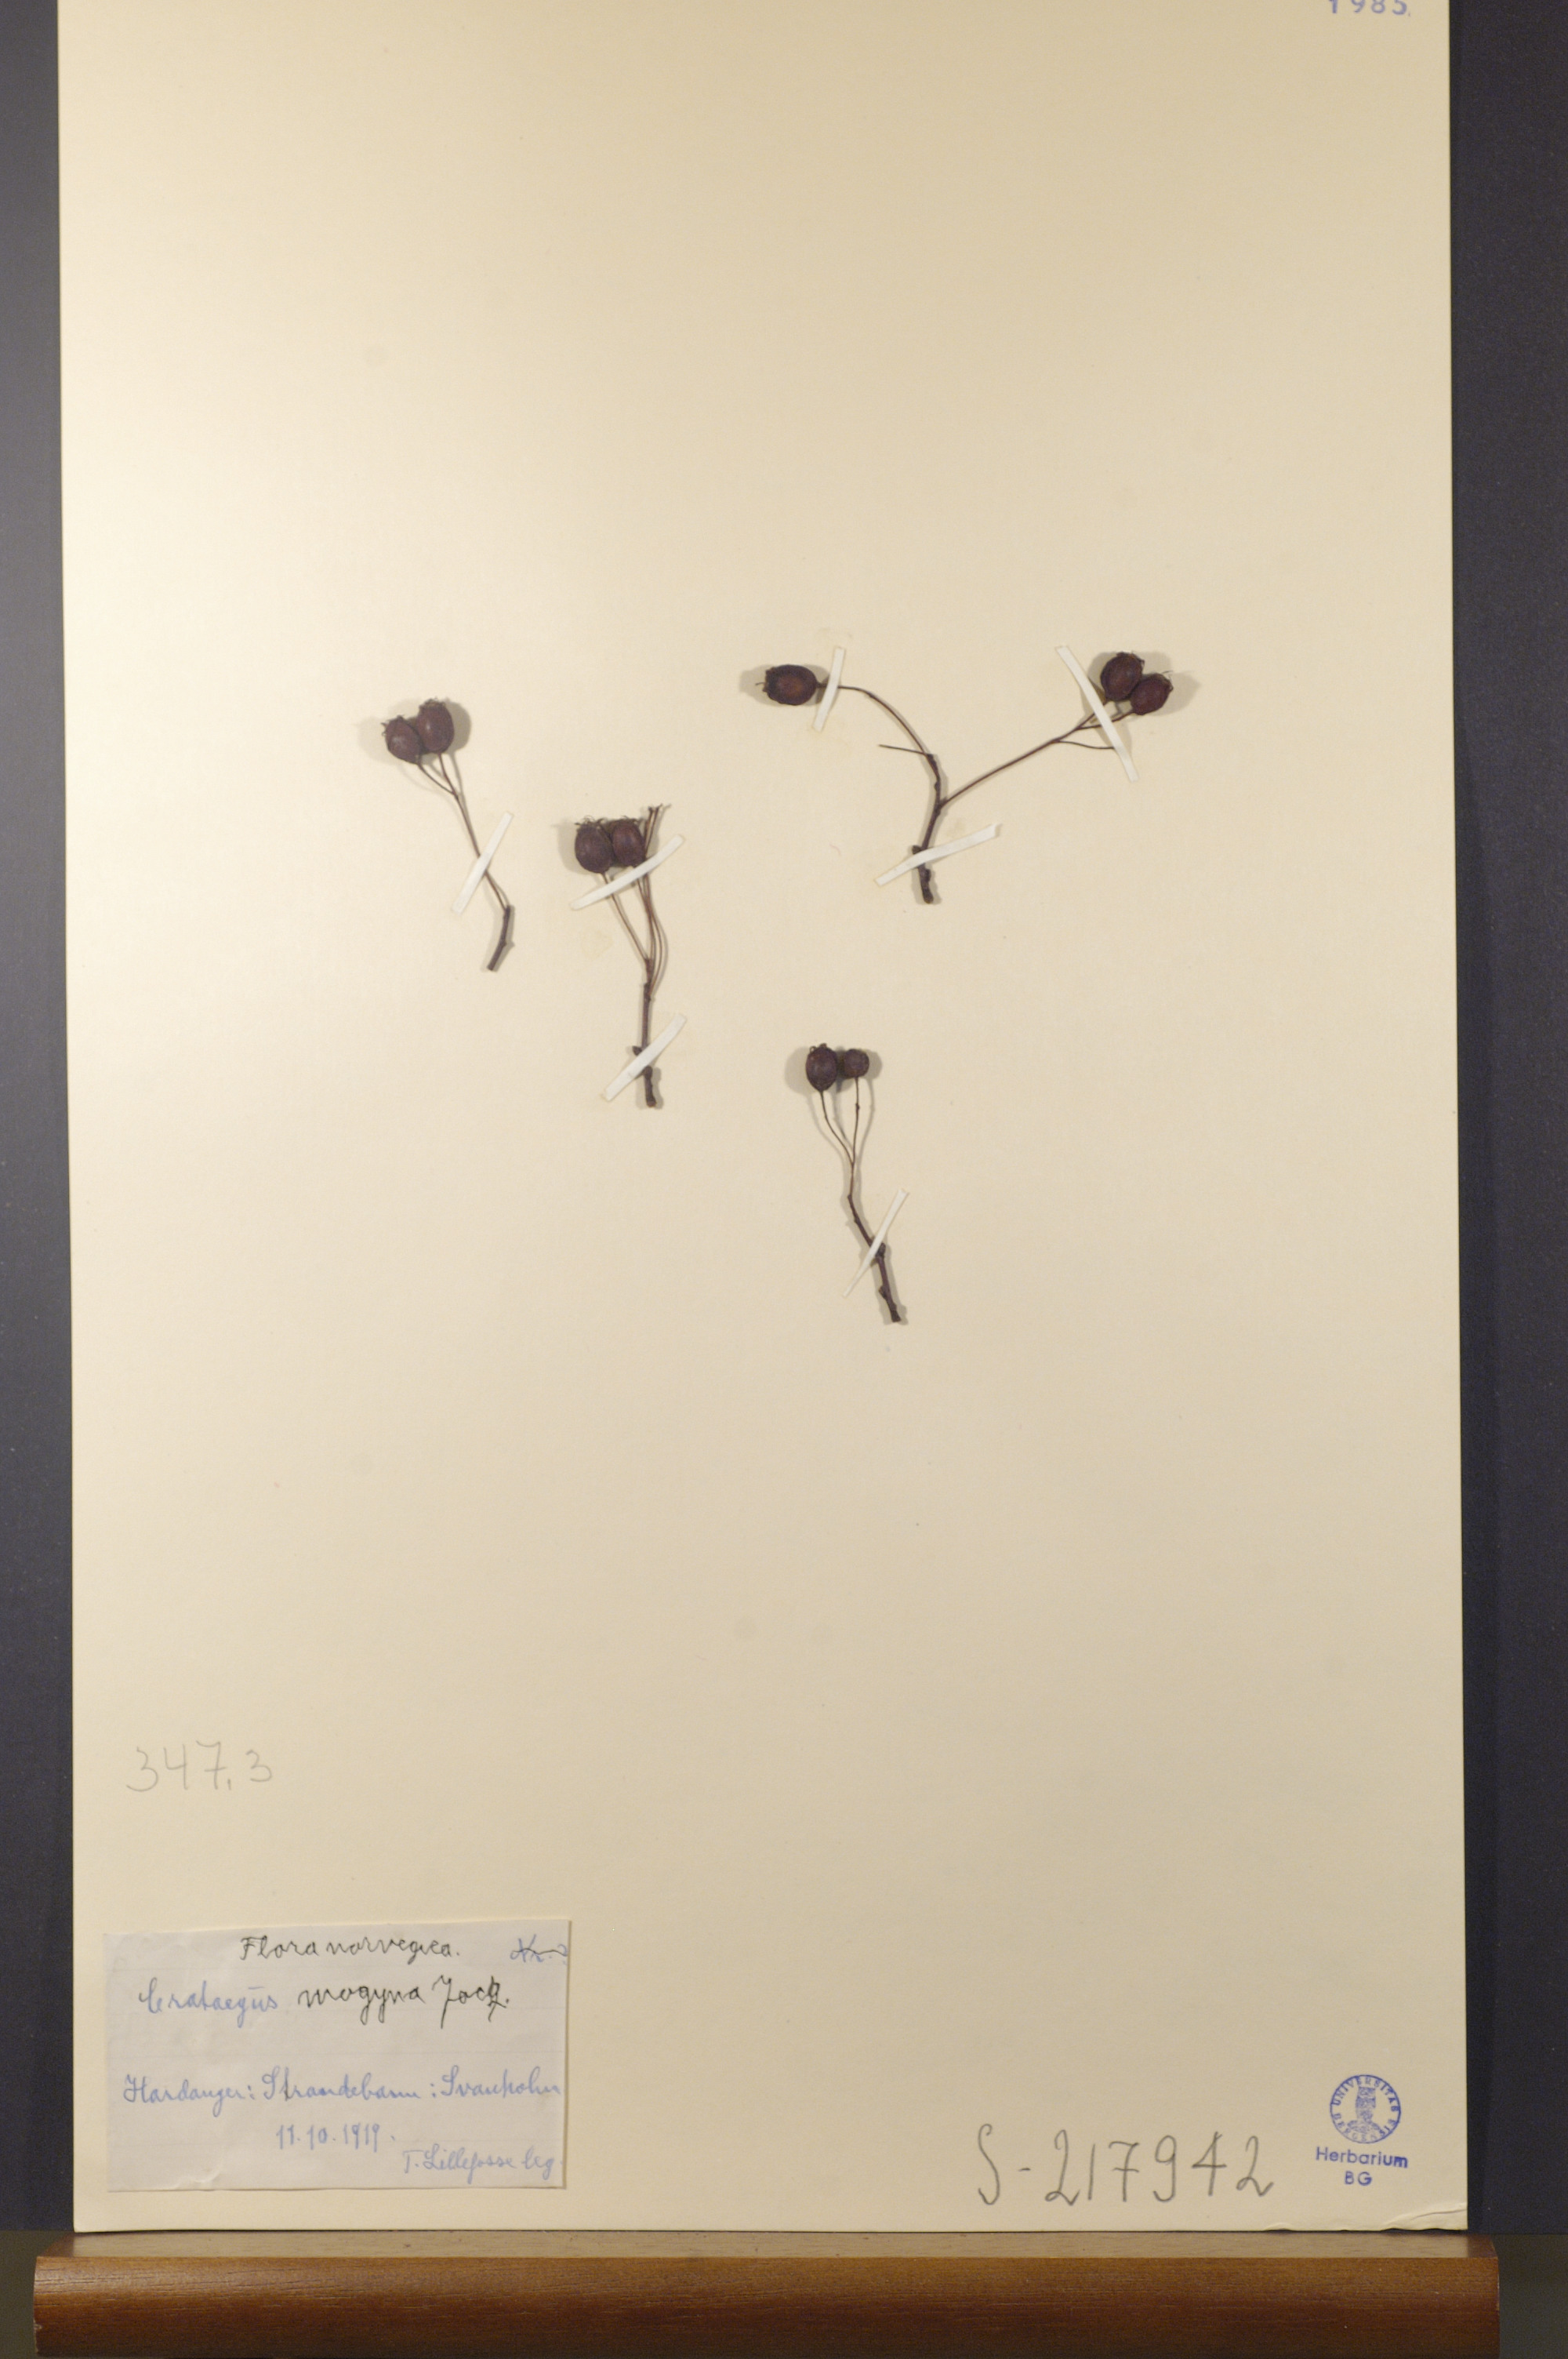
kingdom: Plantae
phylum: Tracheophyta
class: Magnoliopsida
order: Rosales
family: Rosaceae
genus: Crataegus
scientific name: Crataegus monogyna
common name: Hawthorn
